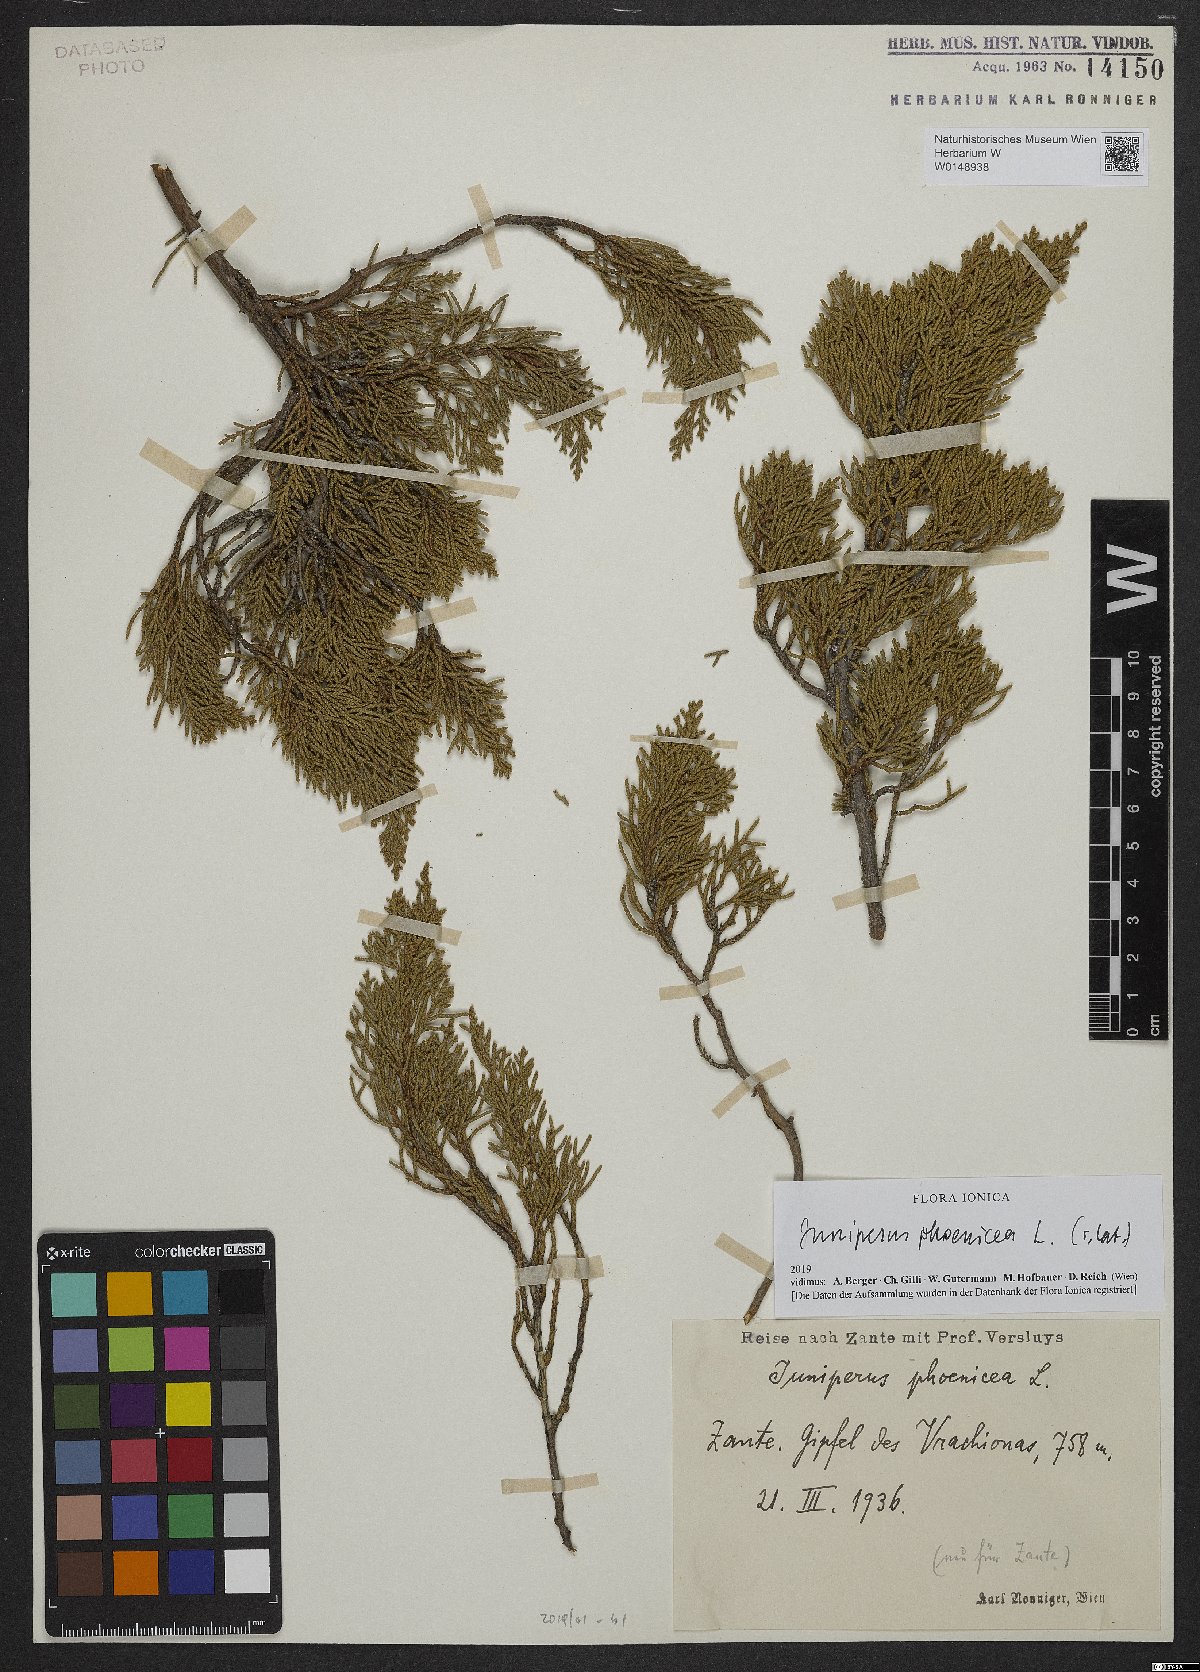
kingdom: Plantae
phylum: Tracheophyta
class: Pinopsida
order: Pinales
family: Cupressaceae
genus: Juniperus
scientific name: Juniperus phoenicea
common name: Phoenician juniper
